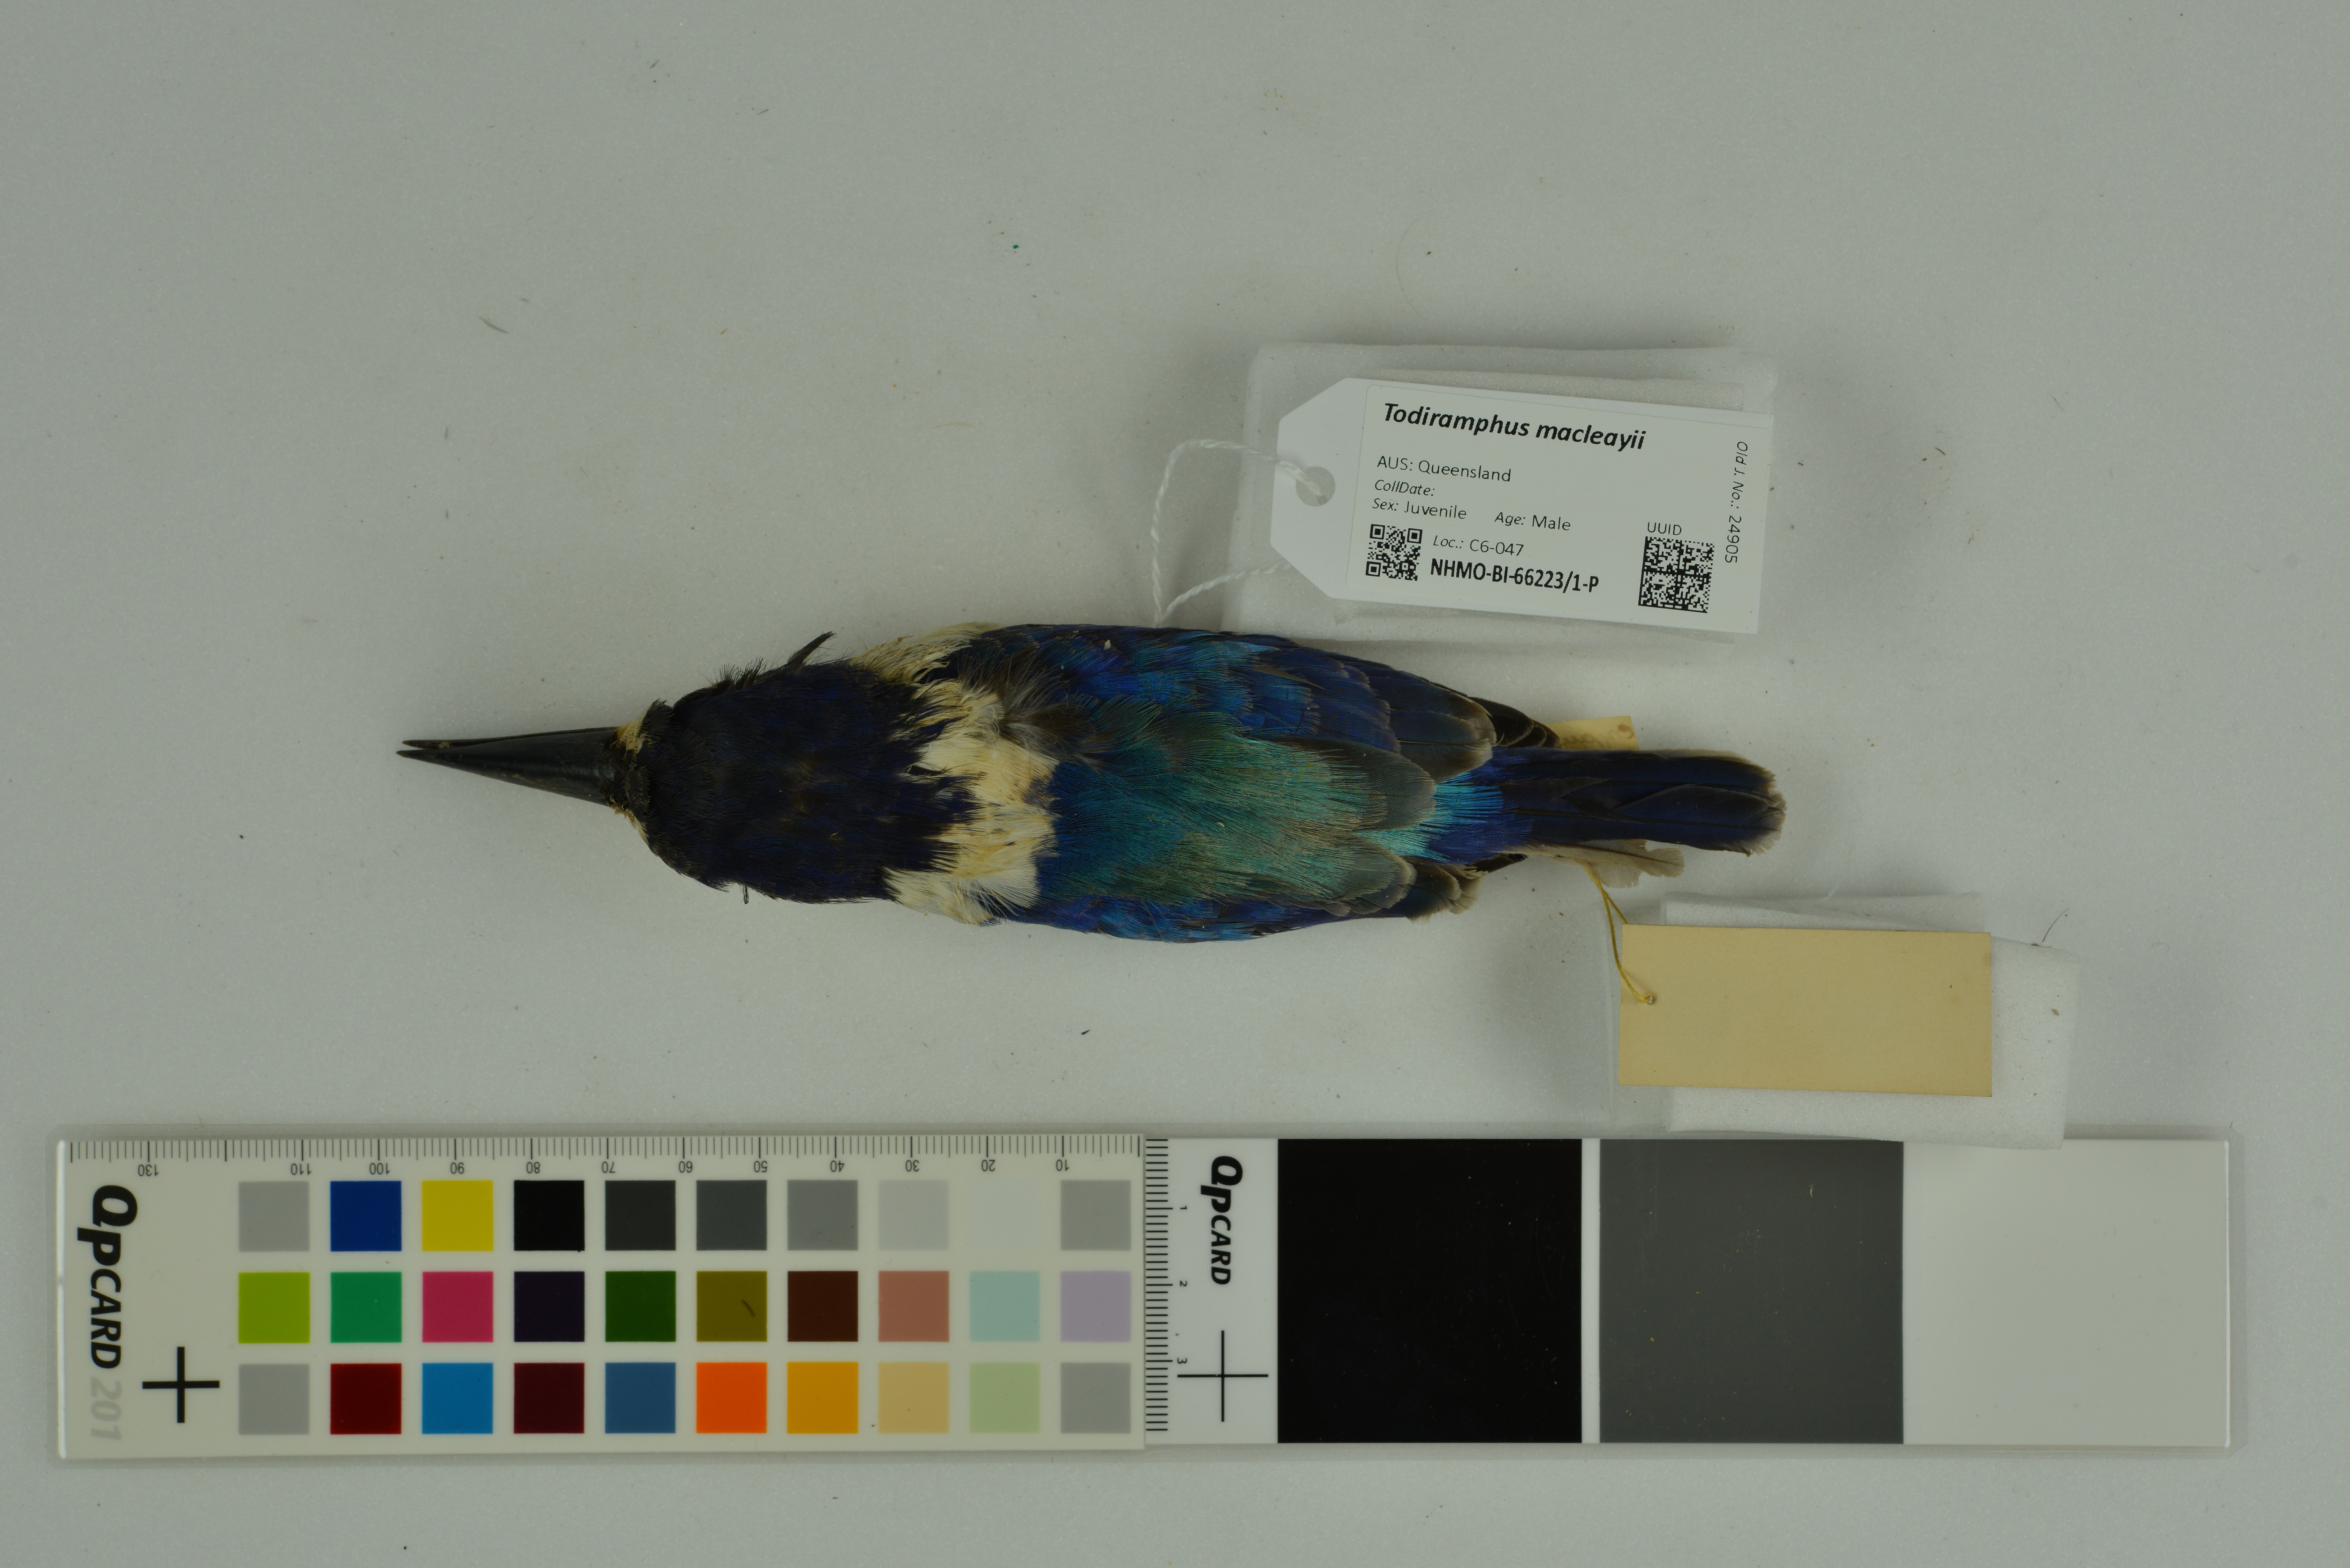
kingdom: Animalia
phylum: Chordata
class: Aves
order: Coraciiformes
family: Alcedinidae
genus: Todiramphus
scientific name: Todiramphus macleayii
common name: Forest kingfisher
